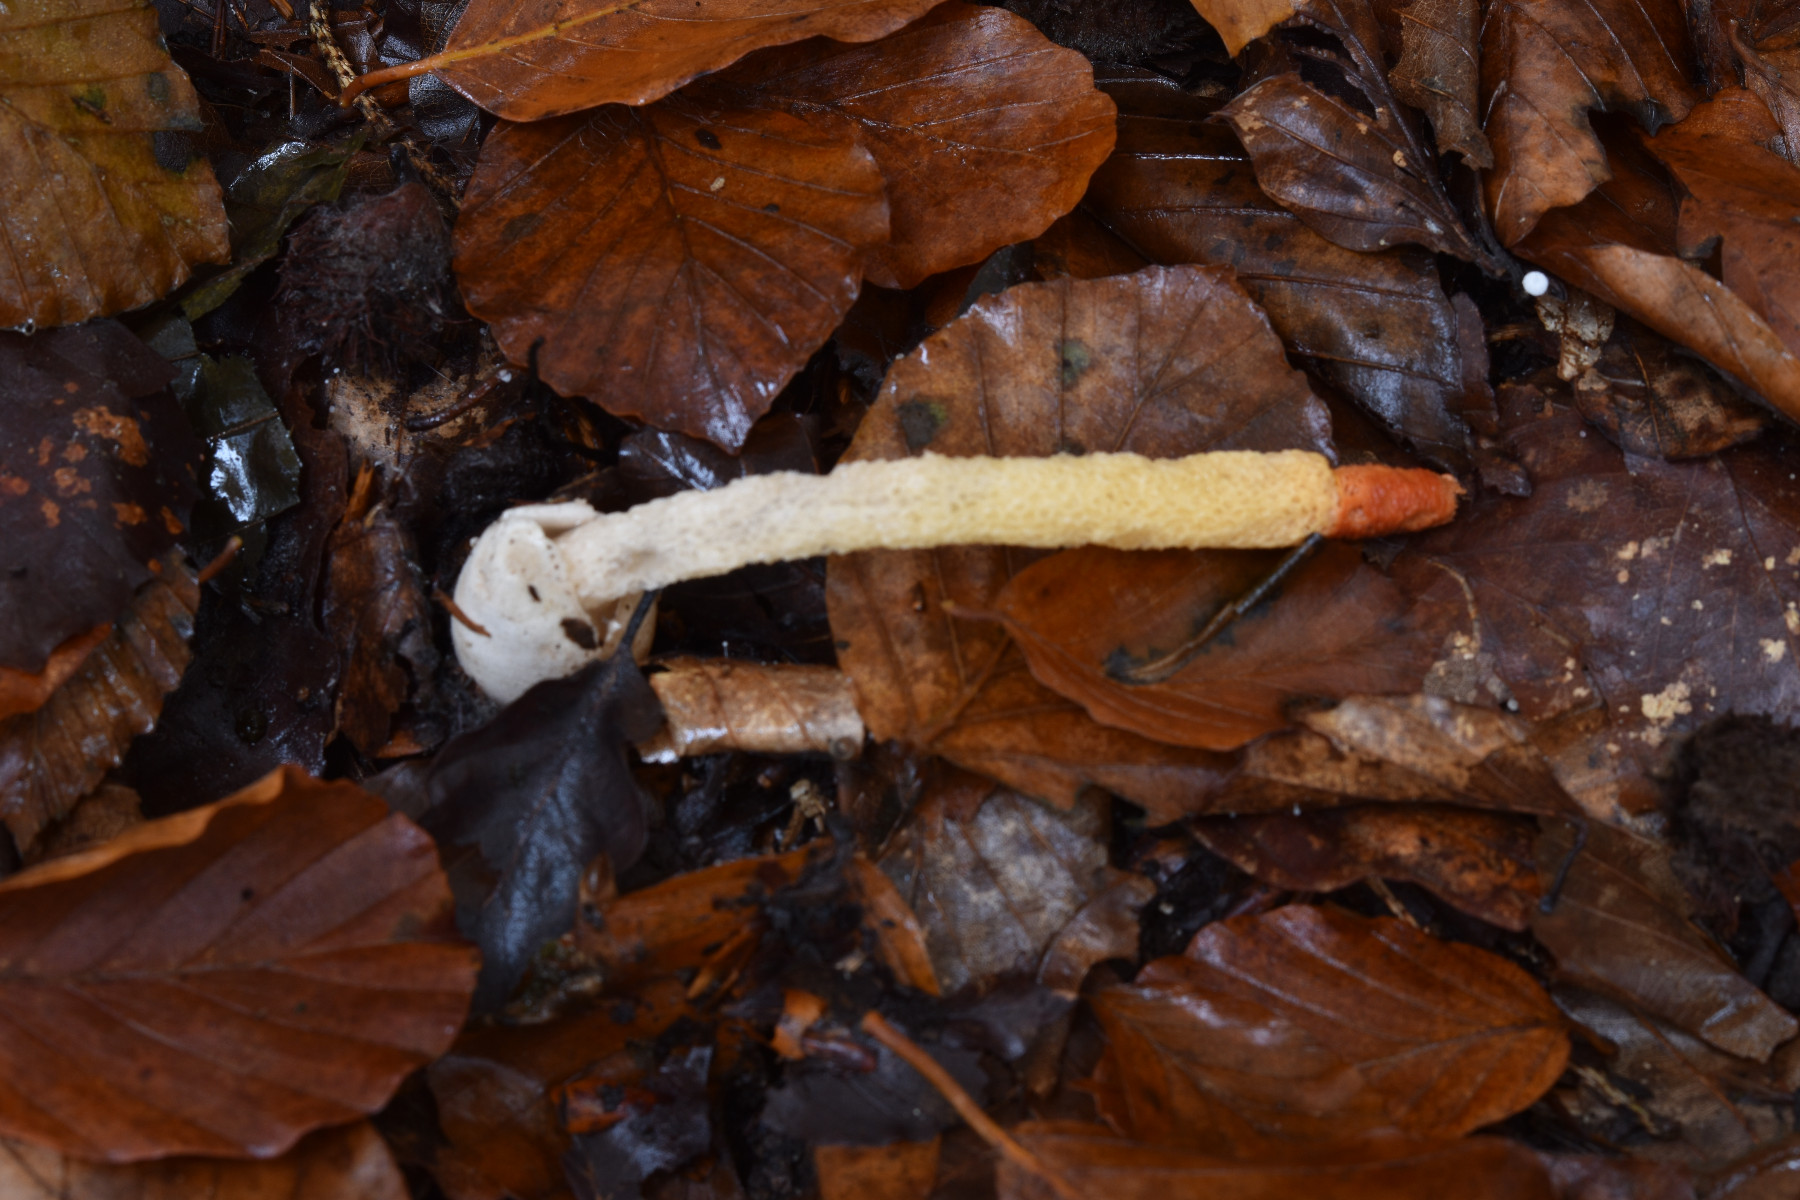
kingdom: Fungi
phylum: Basidiomycota
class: Agaricomycetes
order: Phallales
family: Phallaceae
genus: Mutinus
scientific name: Mutinus caninus
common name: hunde-stinksvamp
